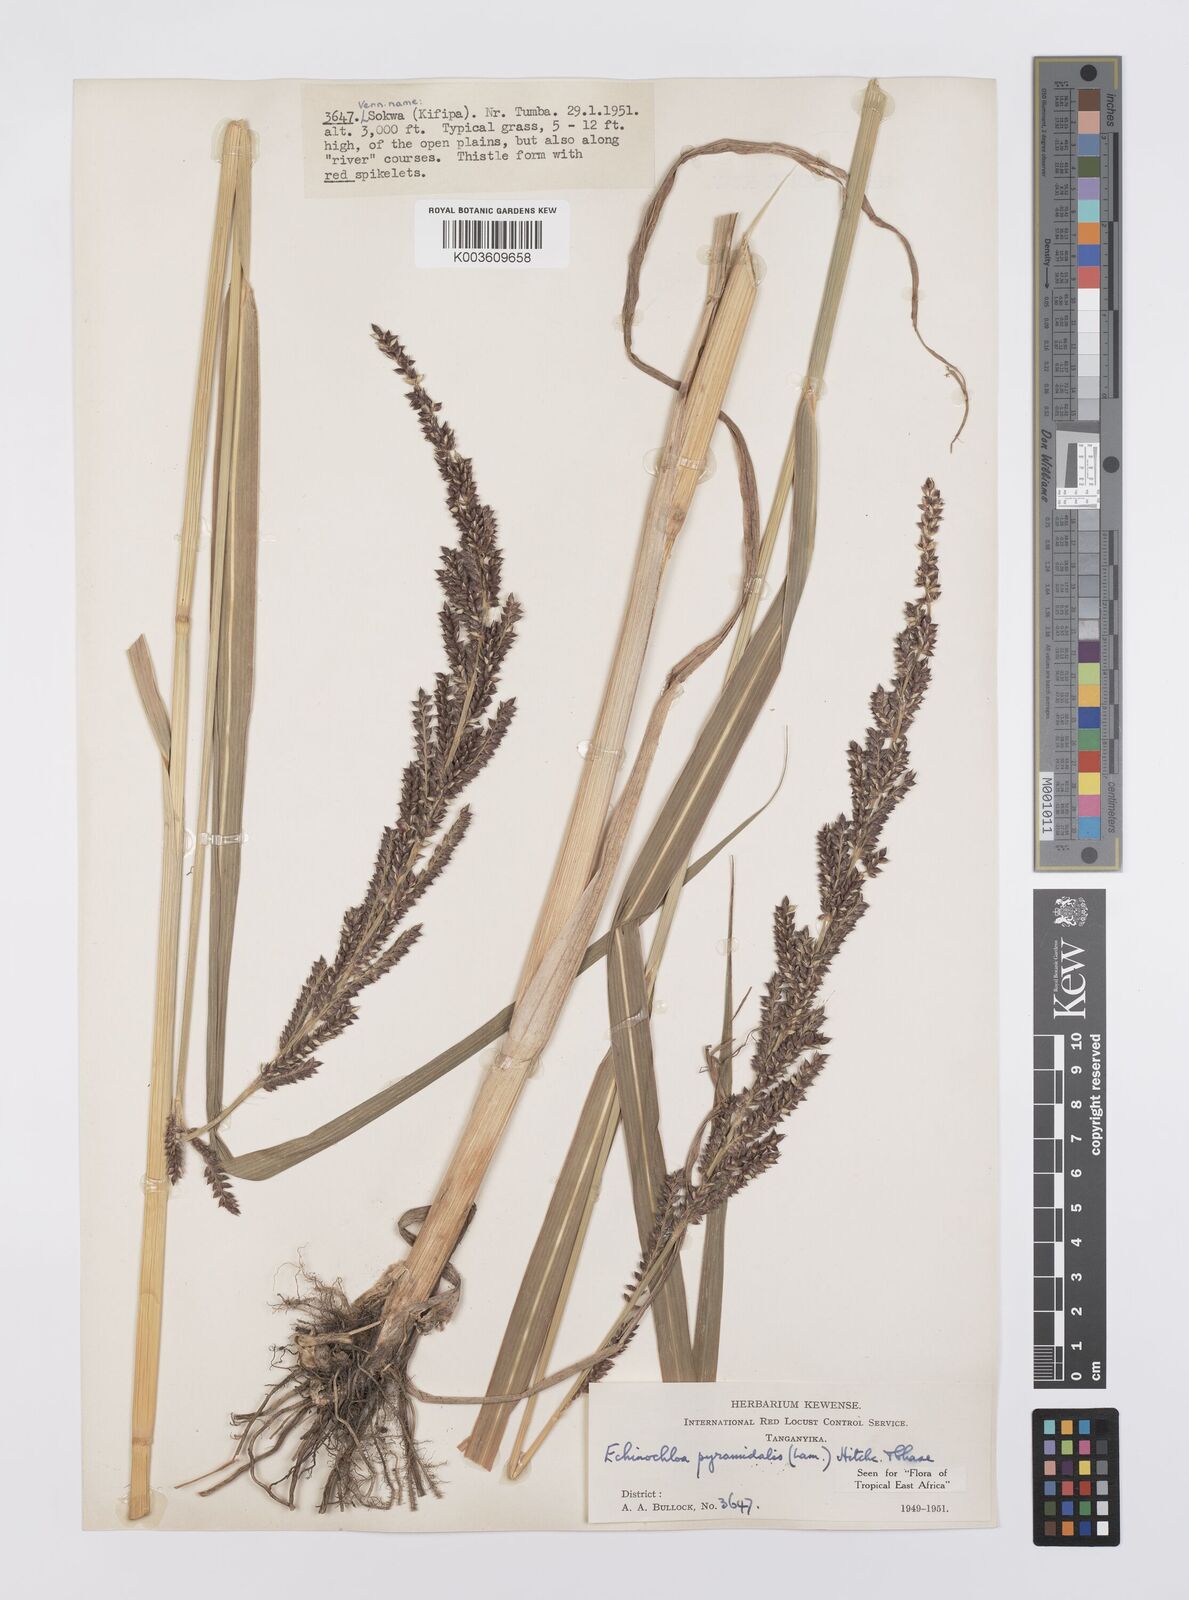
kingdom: Plantae
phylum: Tracheophyta
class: Liliopsida
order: Poales
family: Poaceae
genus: Echinochloa
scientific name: Echinochloa pyramidalis
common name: Antelope grass
